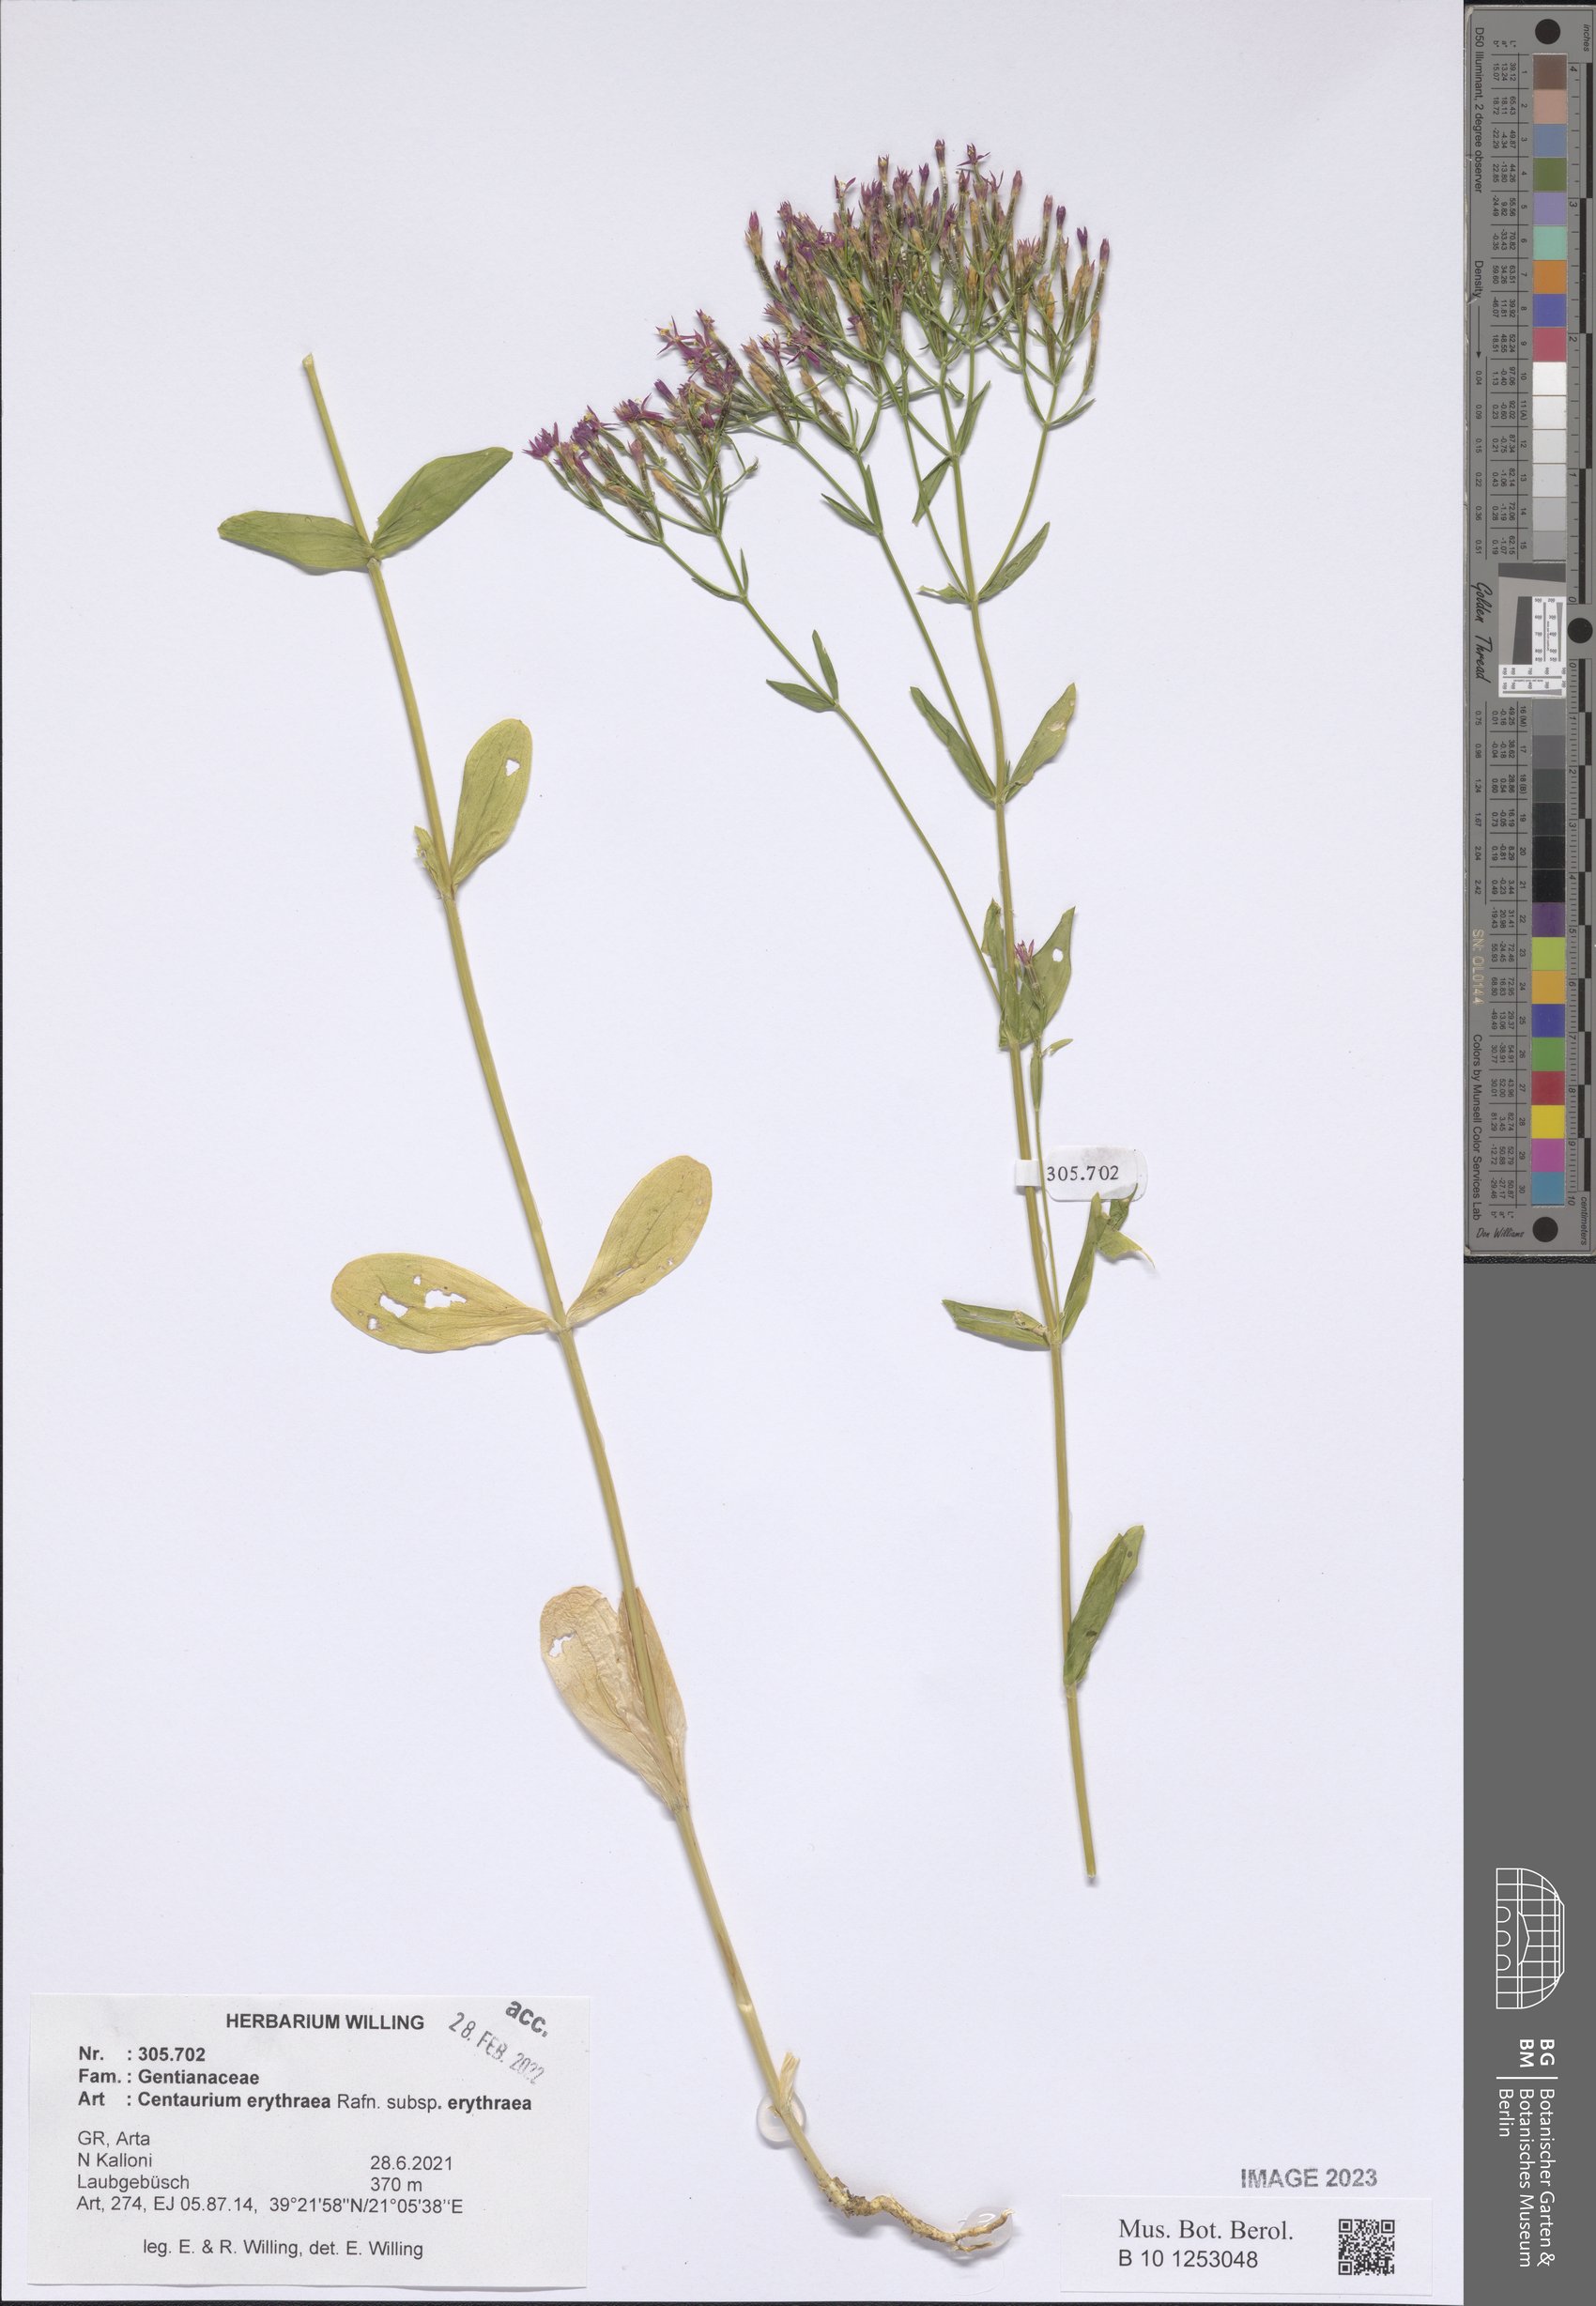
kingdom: Plantae
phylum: Tracheophyta
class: Magnoliopsida
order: Gentianales
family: Gentianaceae
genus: Centaurium
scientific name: Centaurium erythraea
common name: Common centaury
